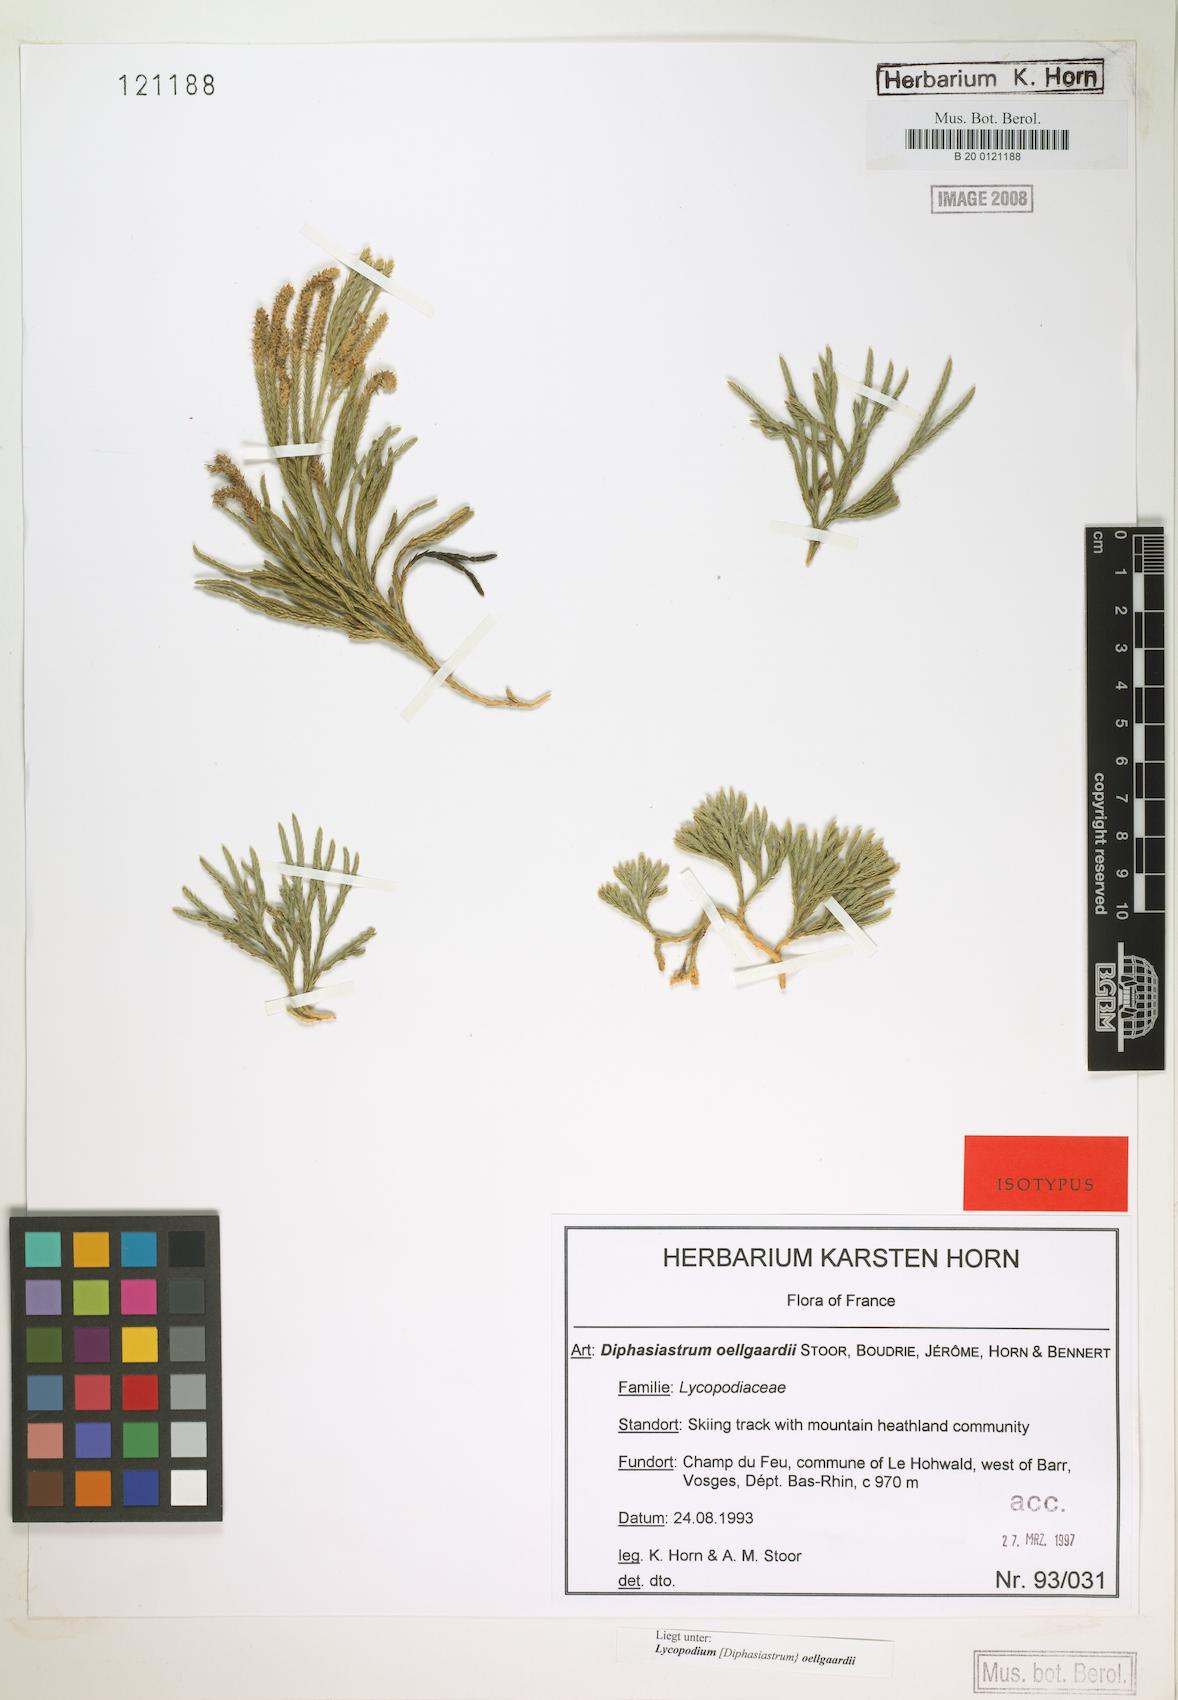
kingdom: Plantae
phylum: Tracheophyta
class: Lycopodiopsida
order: Lycopodiales
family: Lycopodiaceae
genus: Diphasiastrum
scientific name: Diphasiastrum oellgaardii
